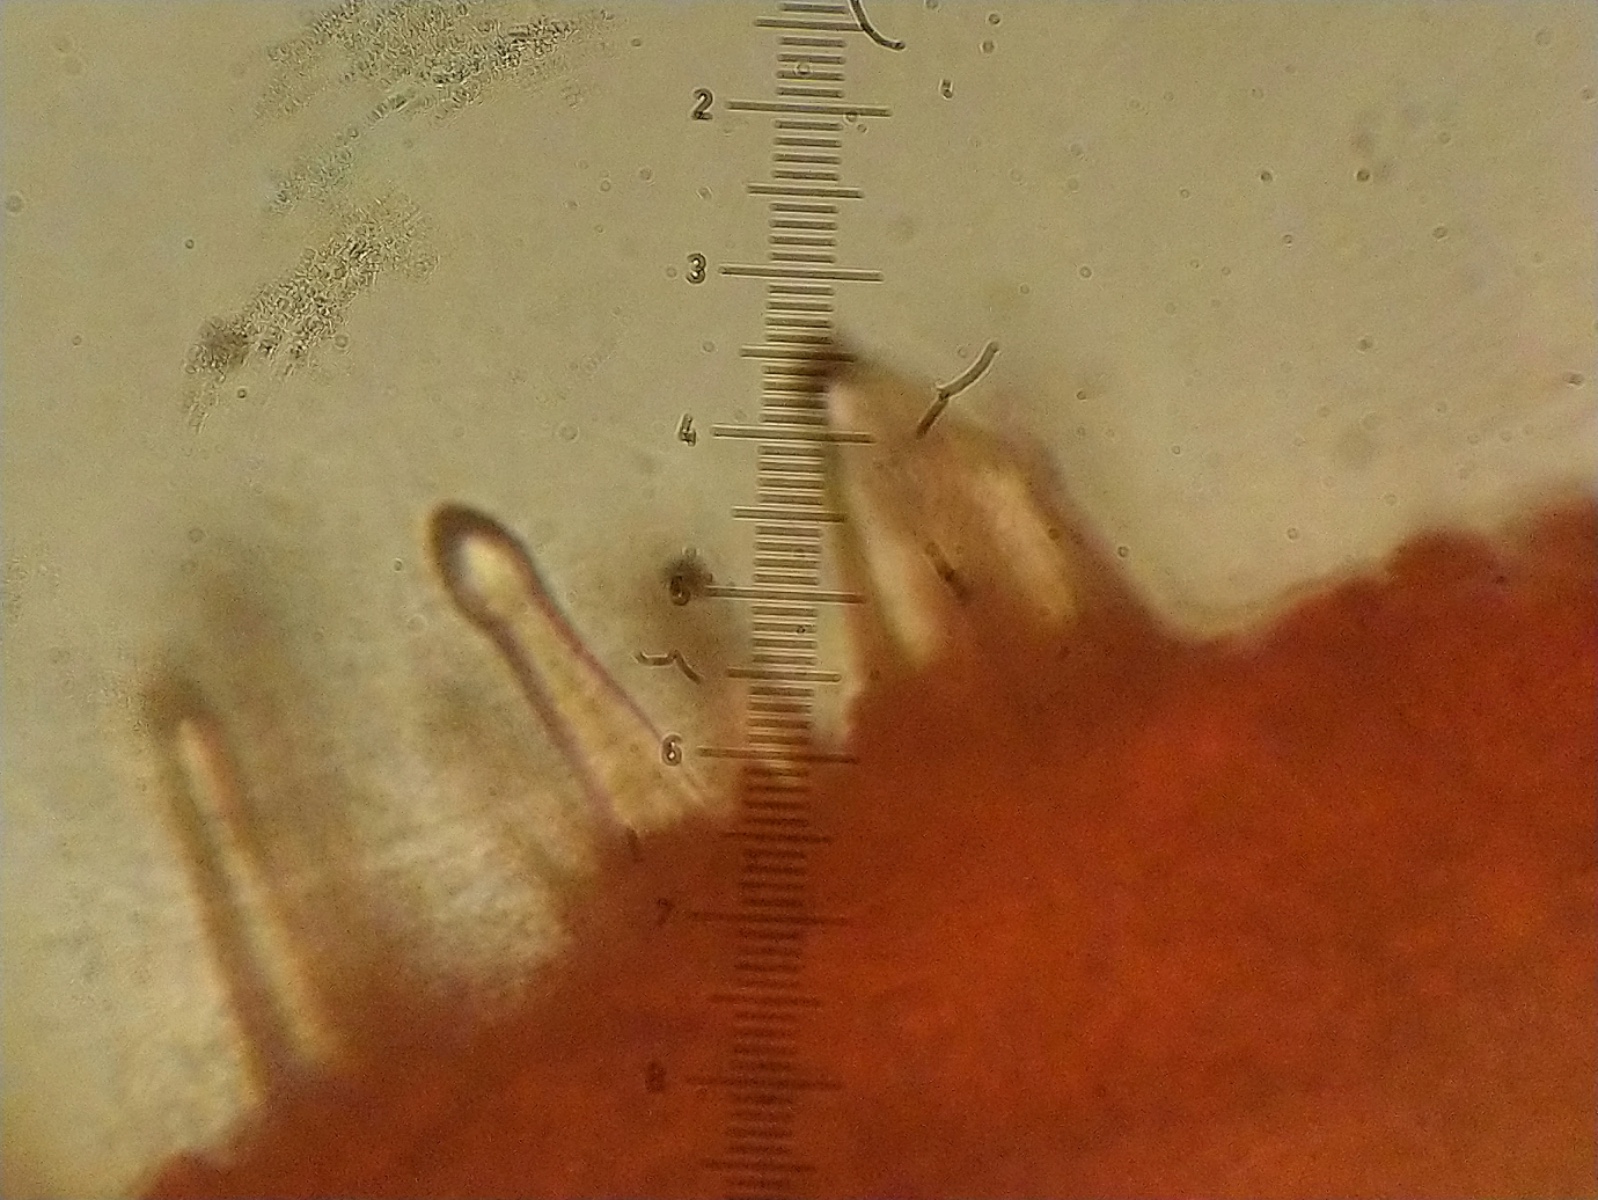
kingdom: Fungi
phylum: Basidiomycota
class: Agaricomycetes
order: Agaricales
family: Physalacriaceae
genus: Strobilurus
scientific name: Strobilurus tenacellus
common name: sommer-koglehat
